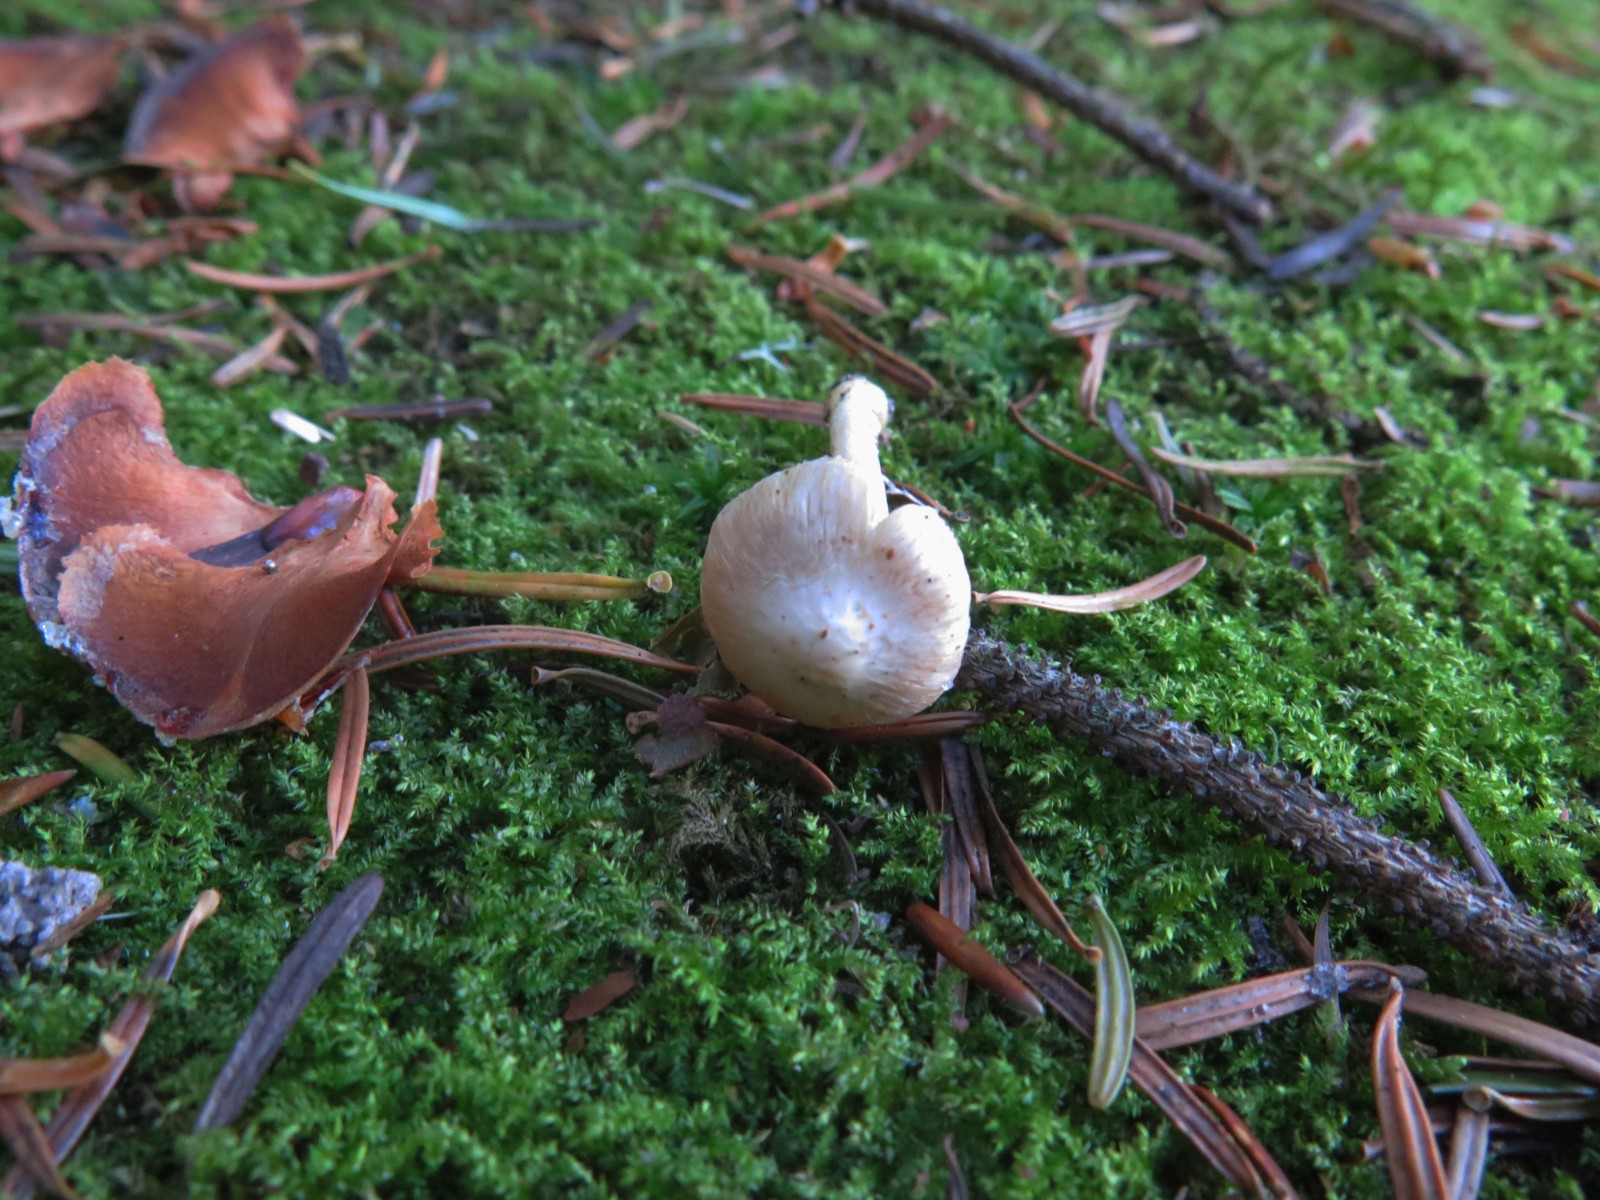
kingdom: Fungi
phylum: Basidiomycota
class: Agaricomycetes
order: Agaricales
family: Inocybaceae
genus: Inocybe
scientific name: Inocybe
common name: almindelig trævlhat
